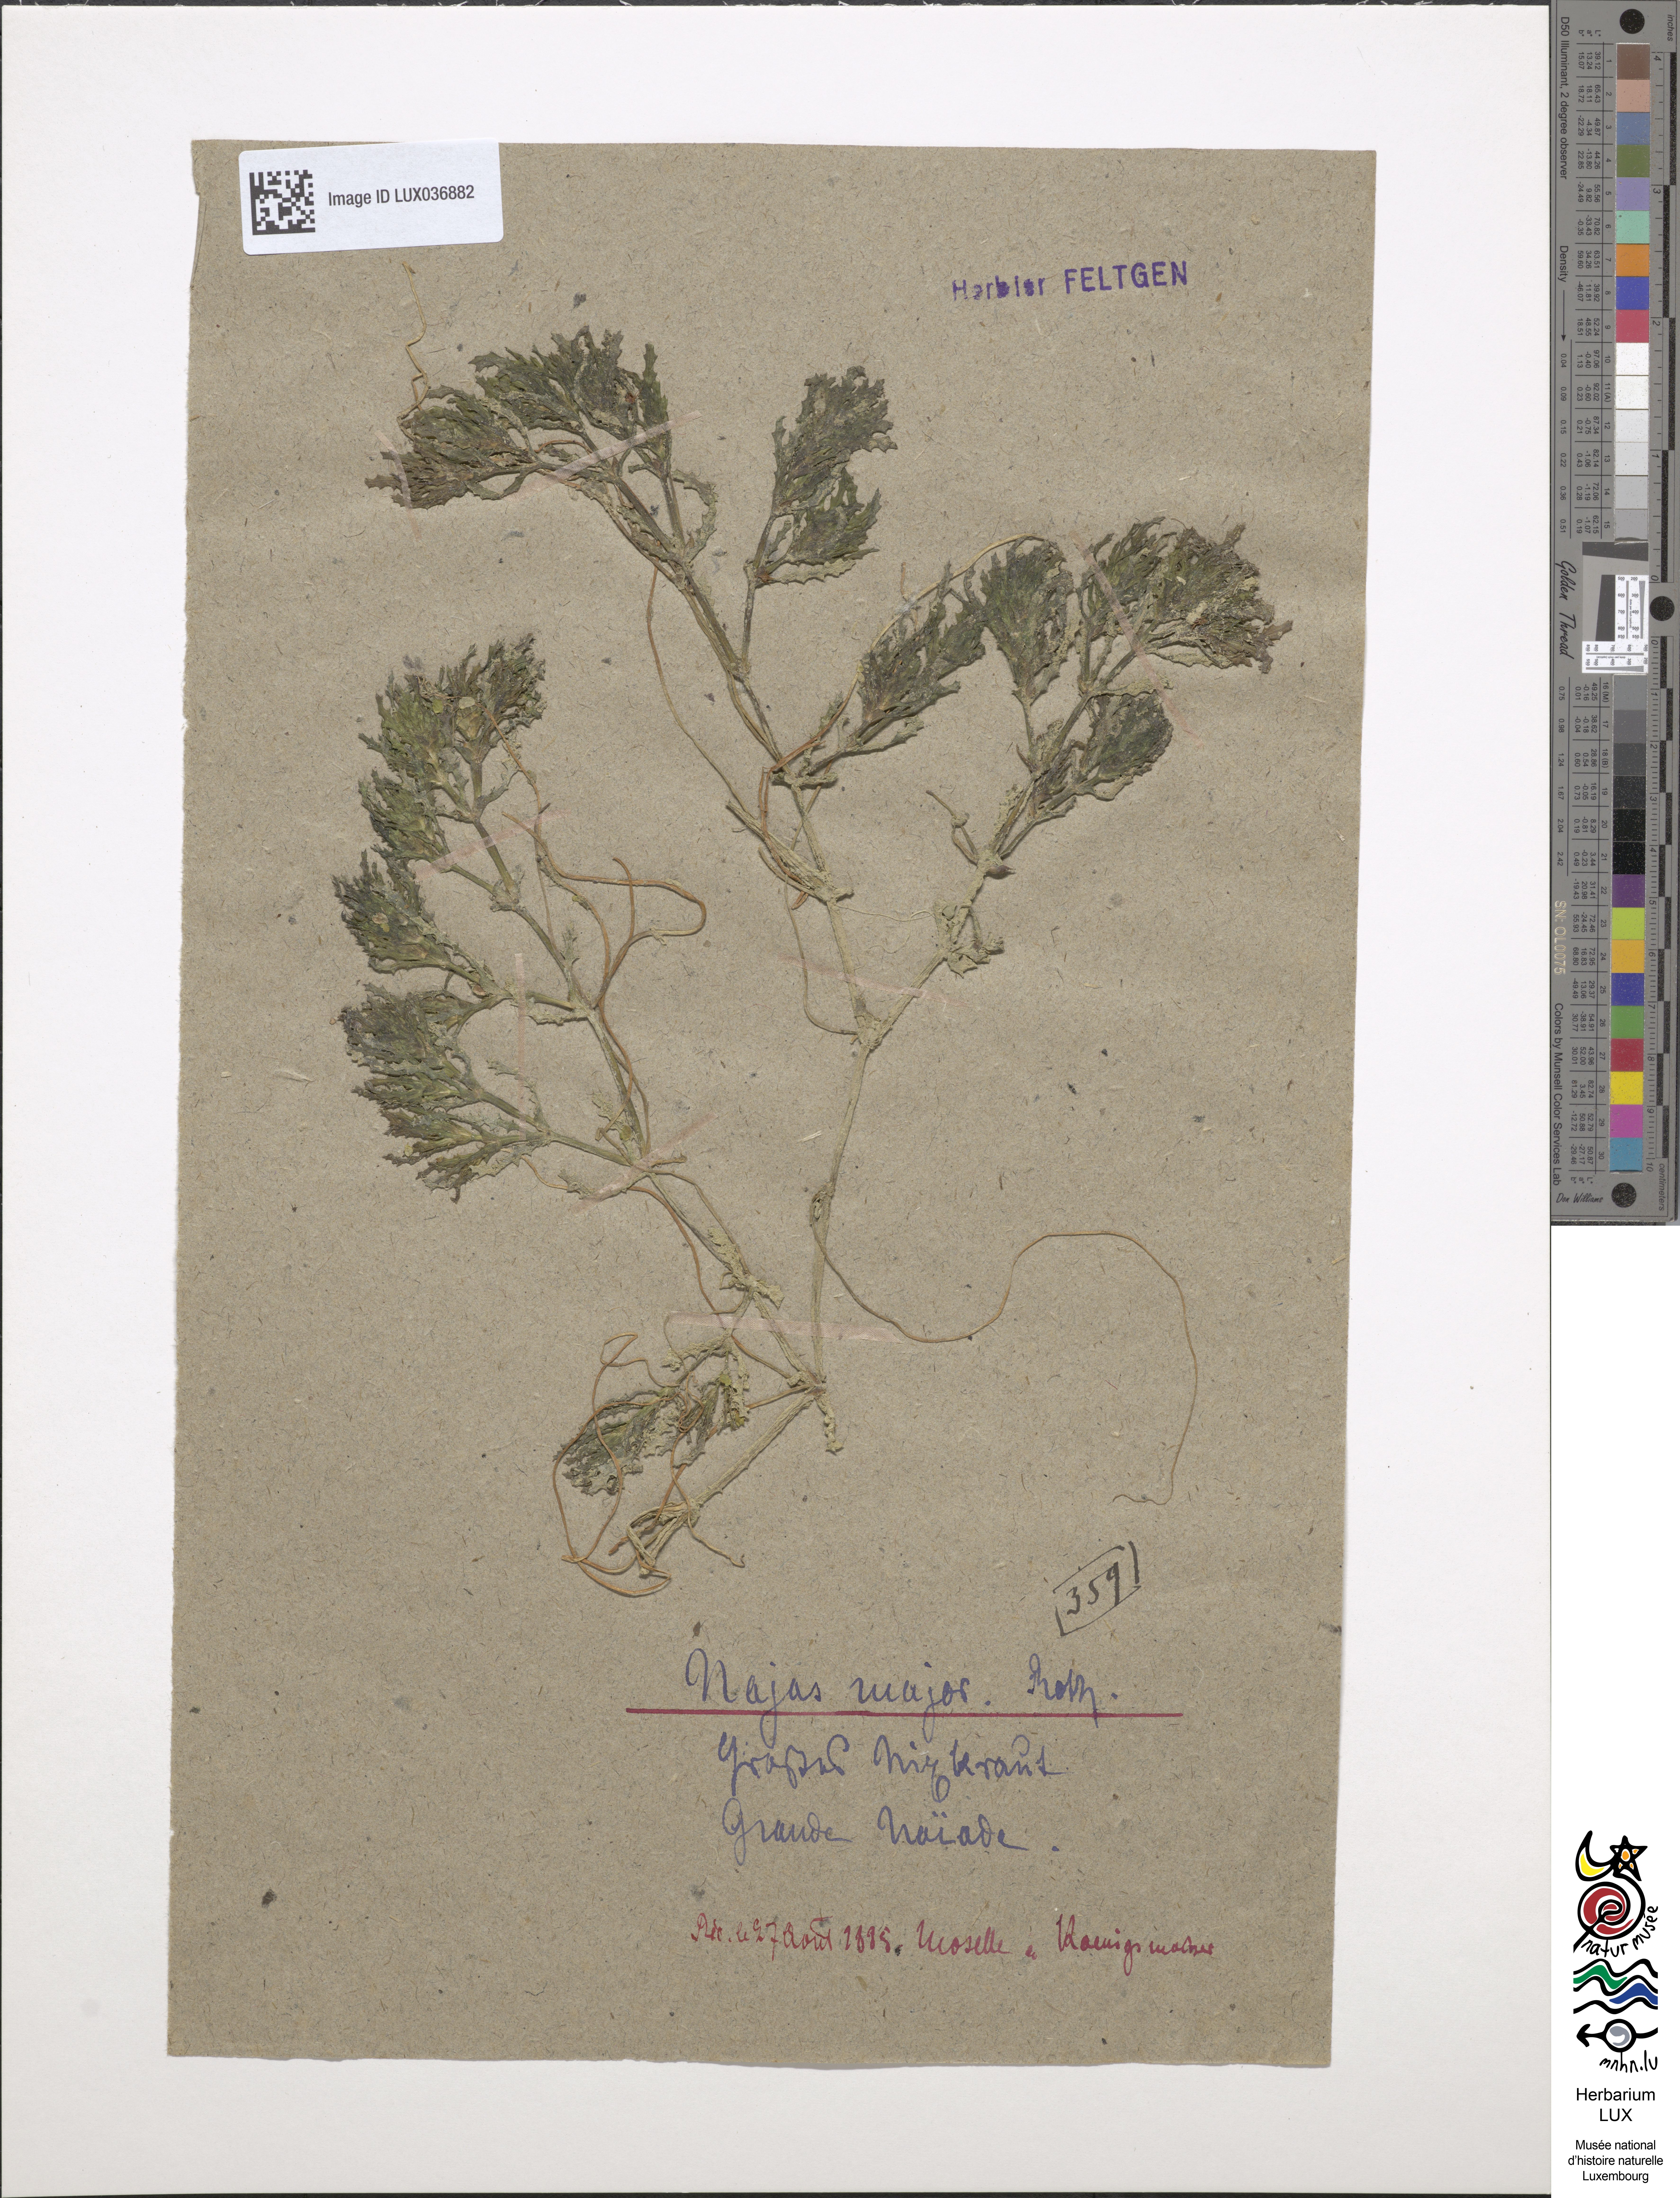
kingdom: Plantae
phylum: Tracheophyta
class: Liliopsida
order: Alismatales
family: Hydrocharitaceae
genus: Najas
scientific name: Najas marina
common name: Holly-leaved naiad
